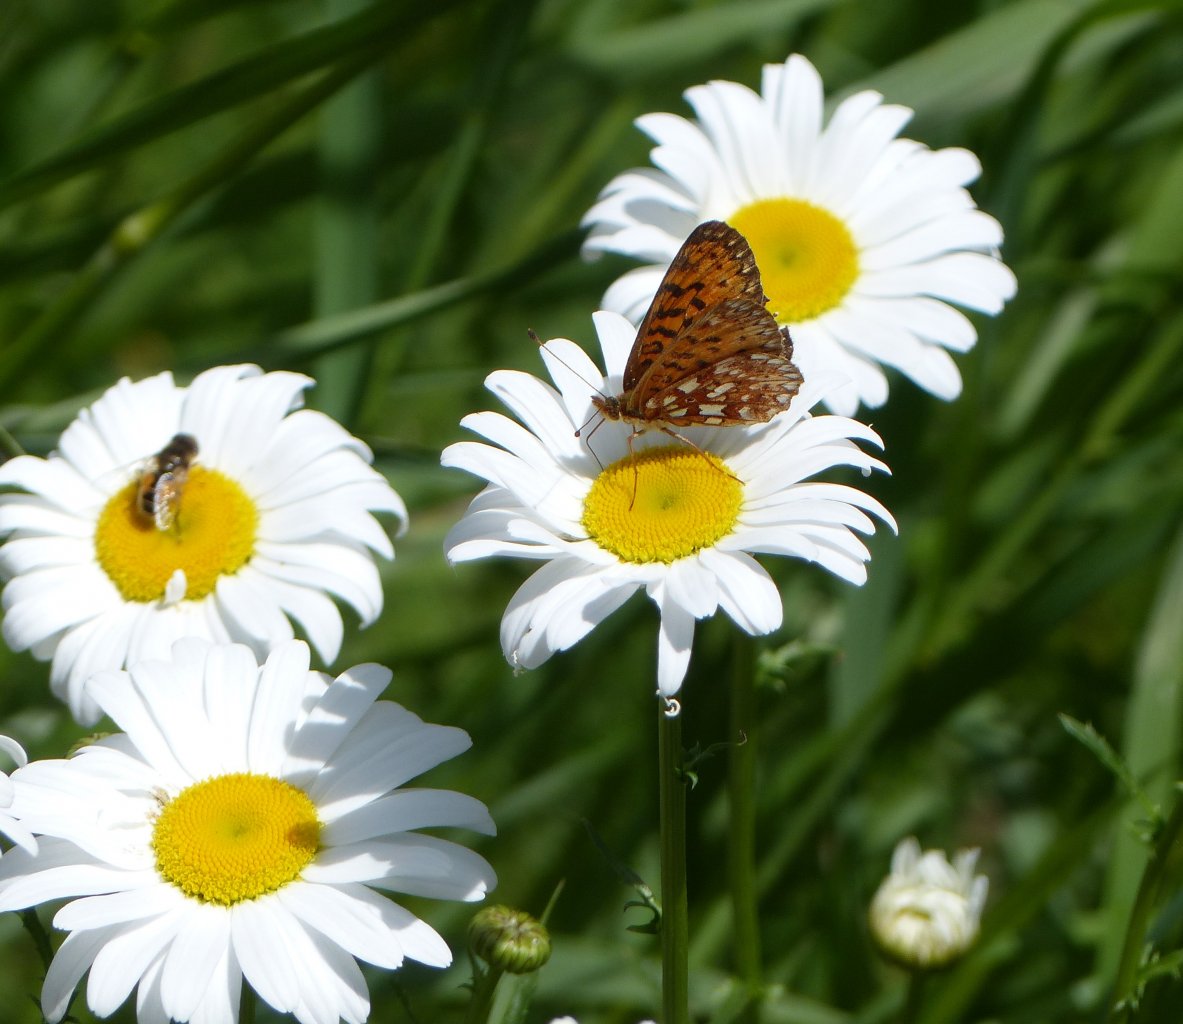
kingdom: Animalia
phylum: Arthropoda
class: Insecta
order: Lepidoptera
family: Nymphalidae
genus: Boloria
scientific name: Boloria selene
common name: Silver-bordered Fritillary
